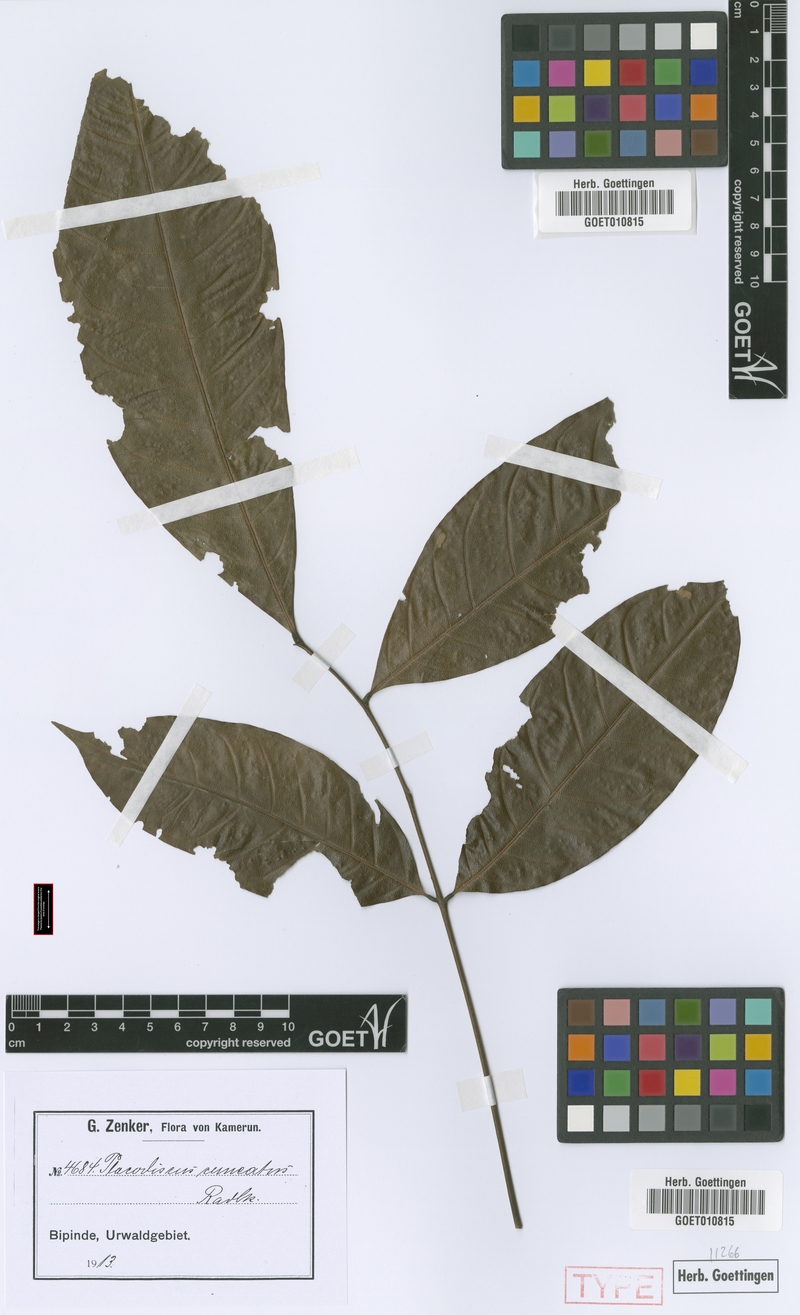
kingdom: Plantae
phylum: Tracheophyta
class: Magnoliopsida
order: Sapindales
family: Sapindaceae
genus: Placodiscus
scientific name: Placodiscus angustifolius
